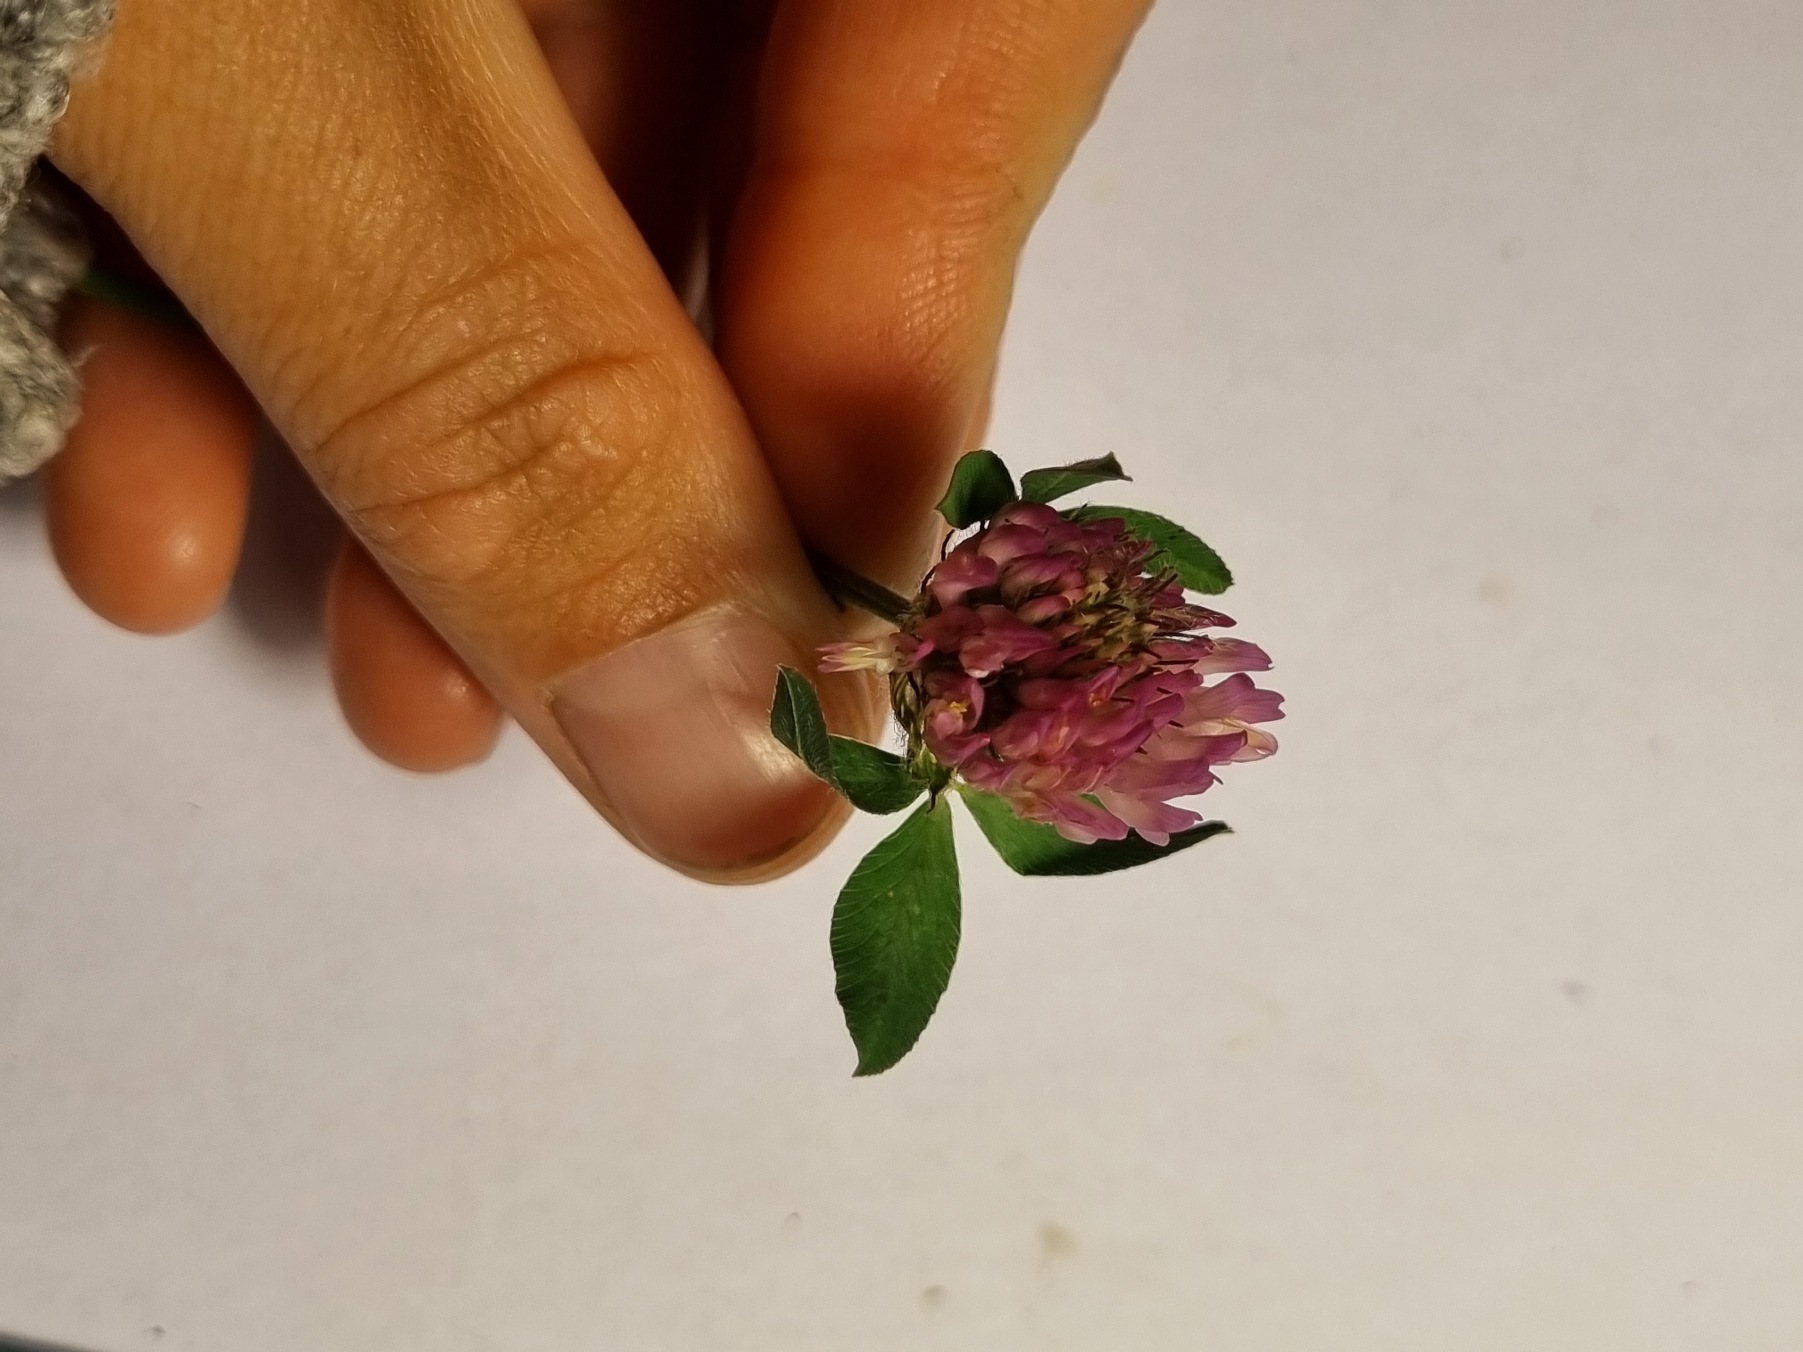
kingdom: Plantae
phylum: Tracheophyta
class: Magnoliopsida
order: Fabales
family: Fabaceae
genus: Trifolium
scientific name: Trifolium pratense
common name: Rød-kløver
